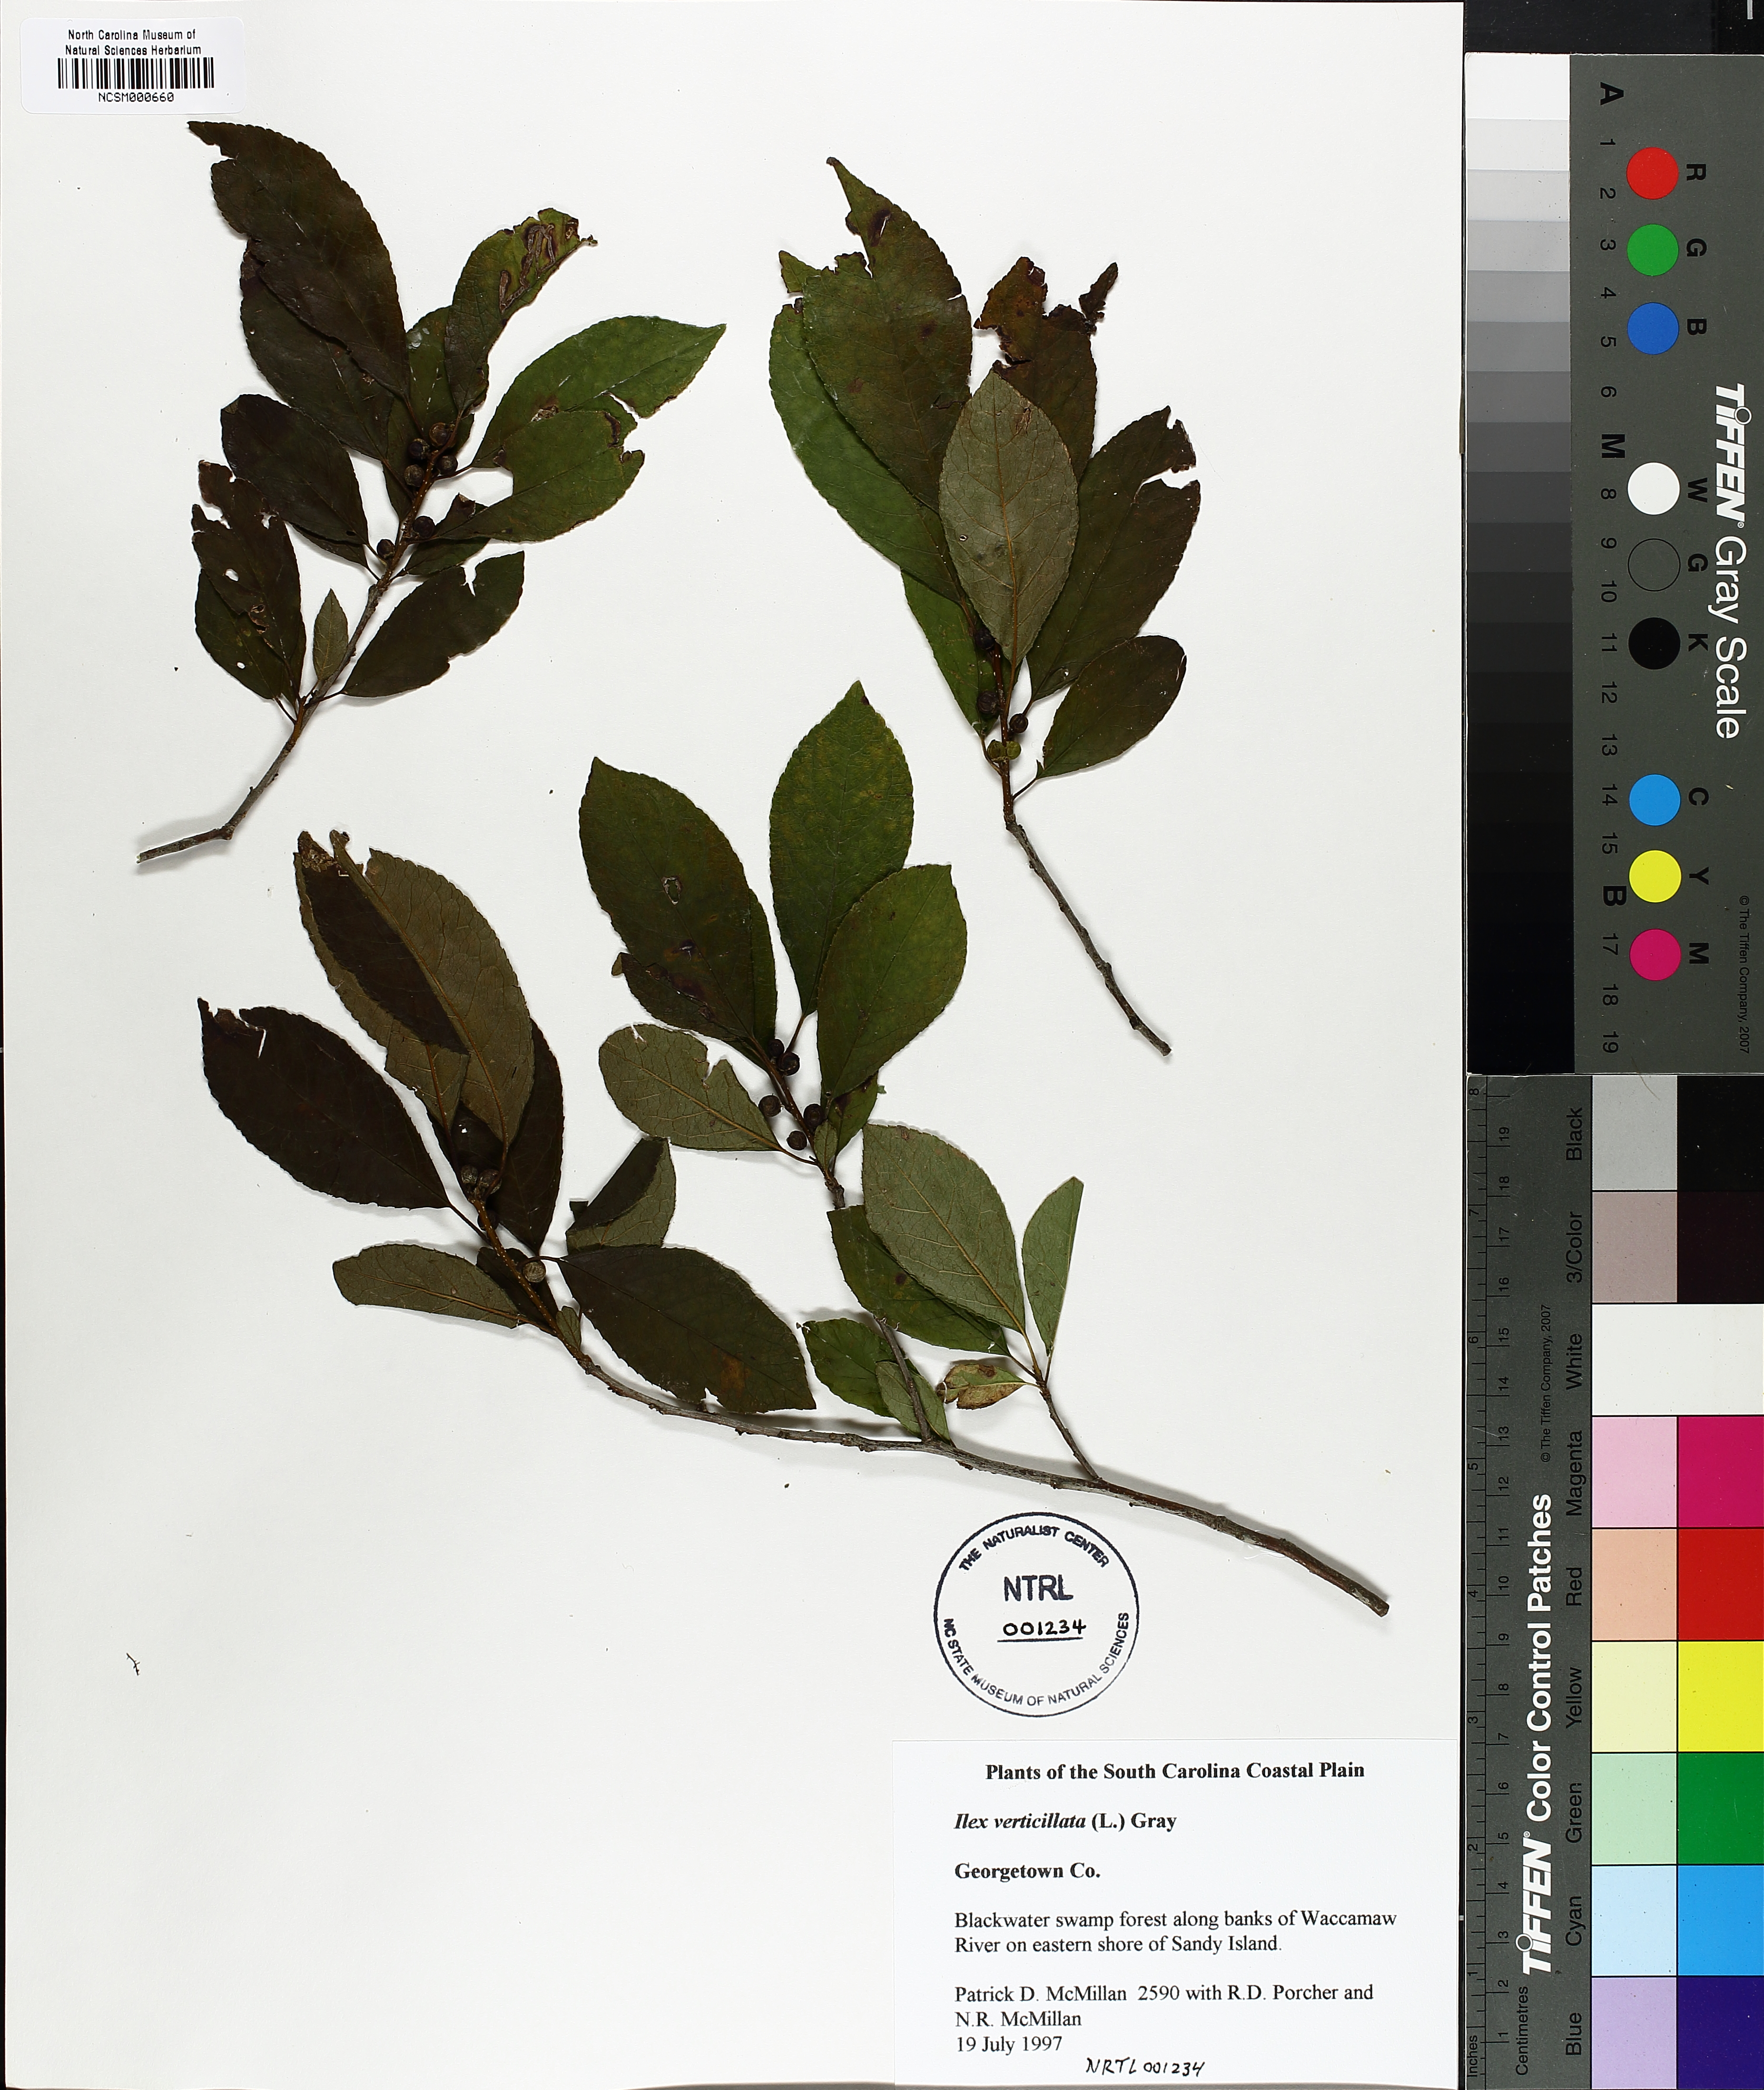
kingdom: Plantae
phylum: Tracheophyta
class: Magnoliopsida
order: Aquifoliales
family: Aquifoliaceae
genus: Ilex
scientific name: Ilex verticillata
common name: Virginia winterberry
